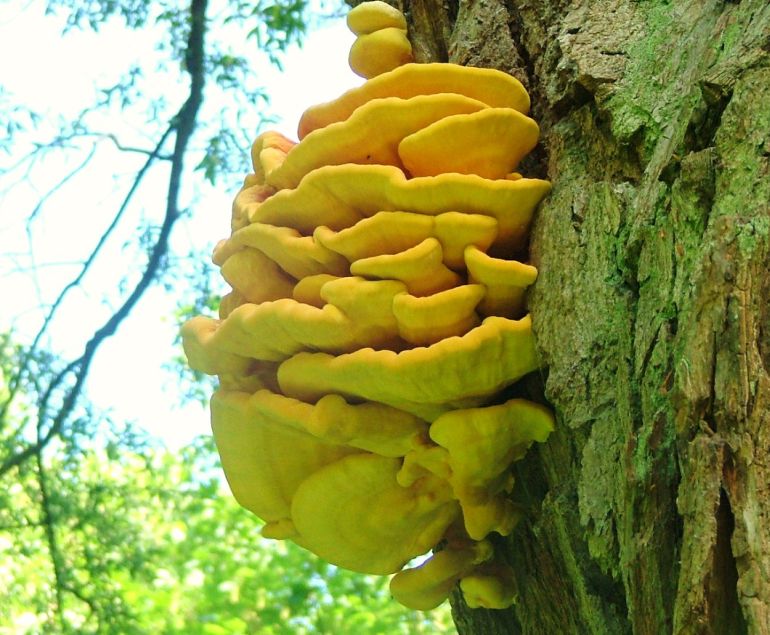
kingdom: Fungi
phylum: Basidiomycota
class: Agaricomycetes
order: Polyporales
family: Laetiporaceae
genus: Laetiporus
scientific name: Laetiporus sulphureus
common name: svovlporesvamp
